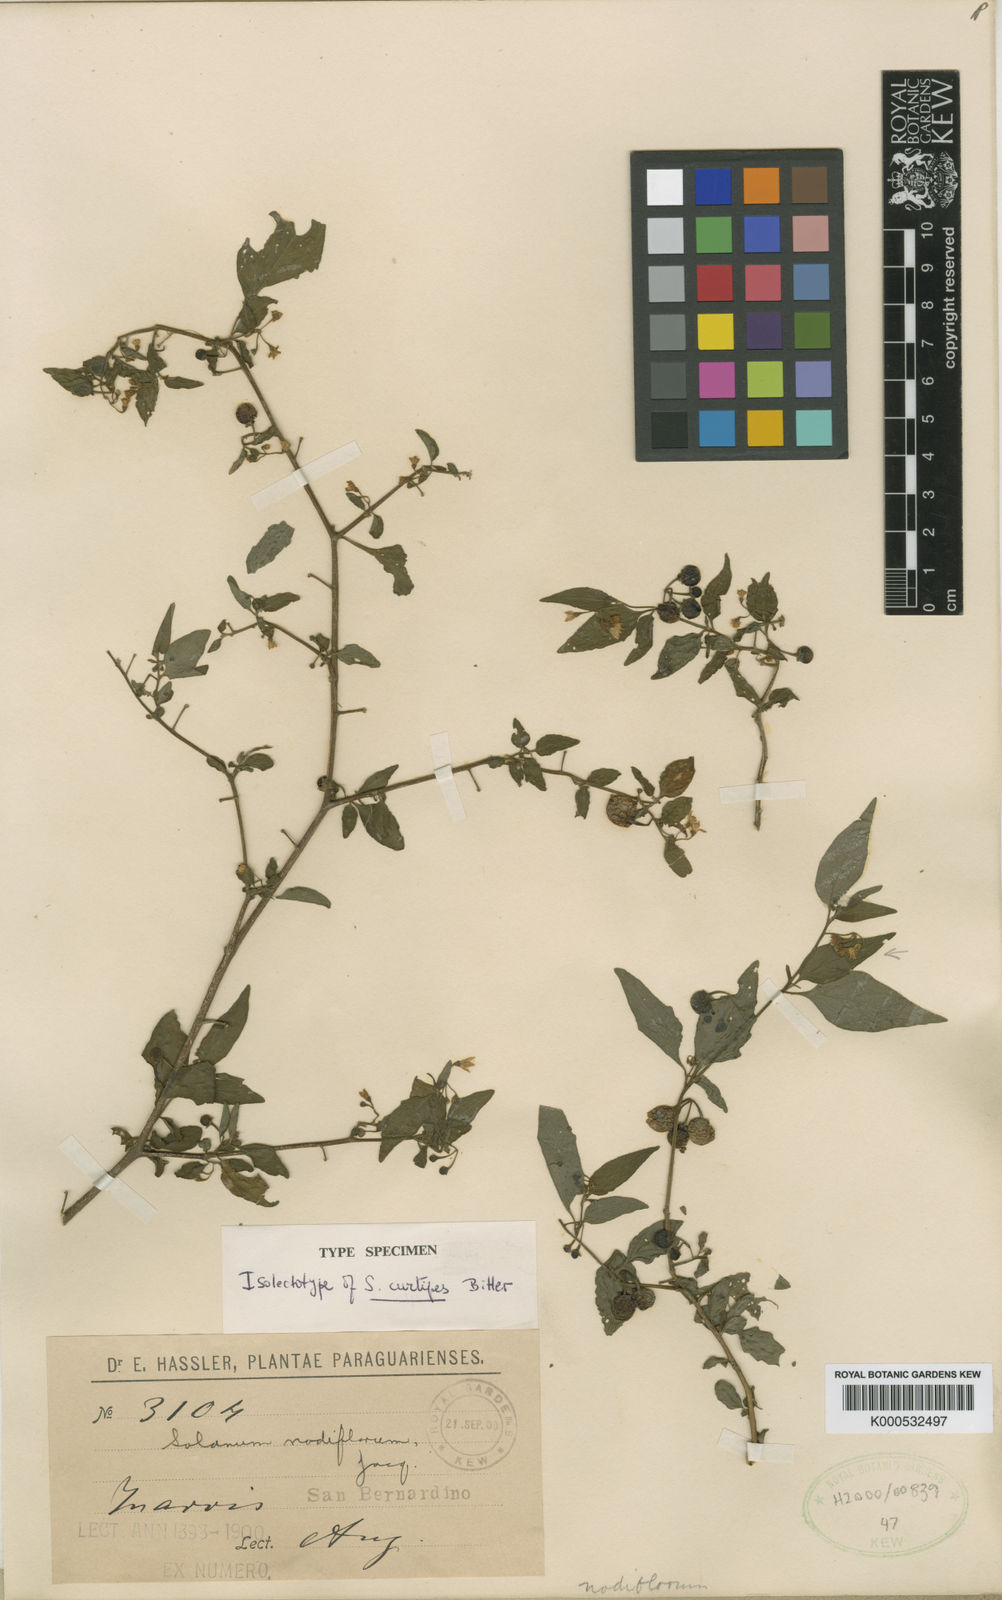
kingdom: Plantae
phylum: Tracheophyta
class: Magnoliopsida
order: Solanales
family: Solanaceae
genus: Solanum
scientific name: Solanum americanum
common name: American black nightshade
